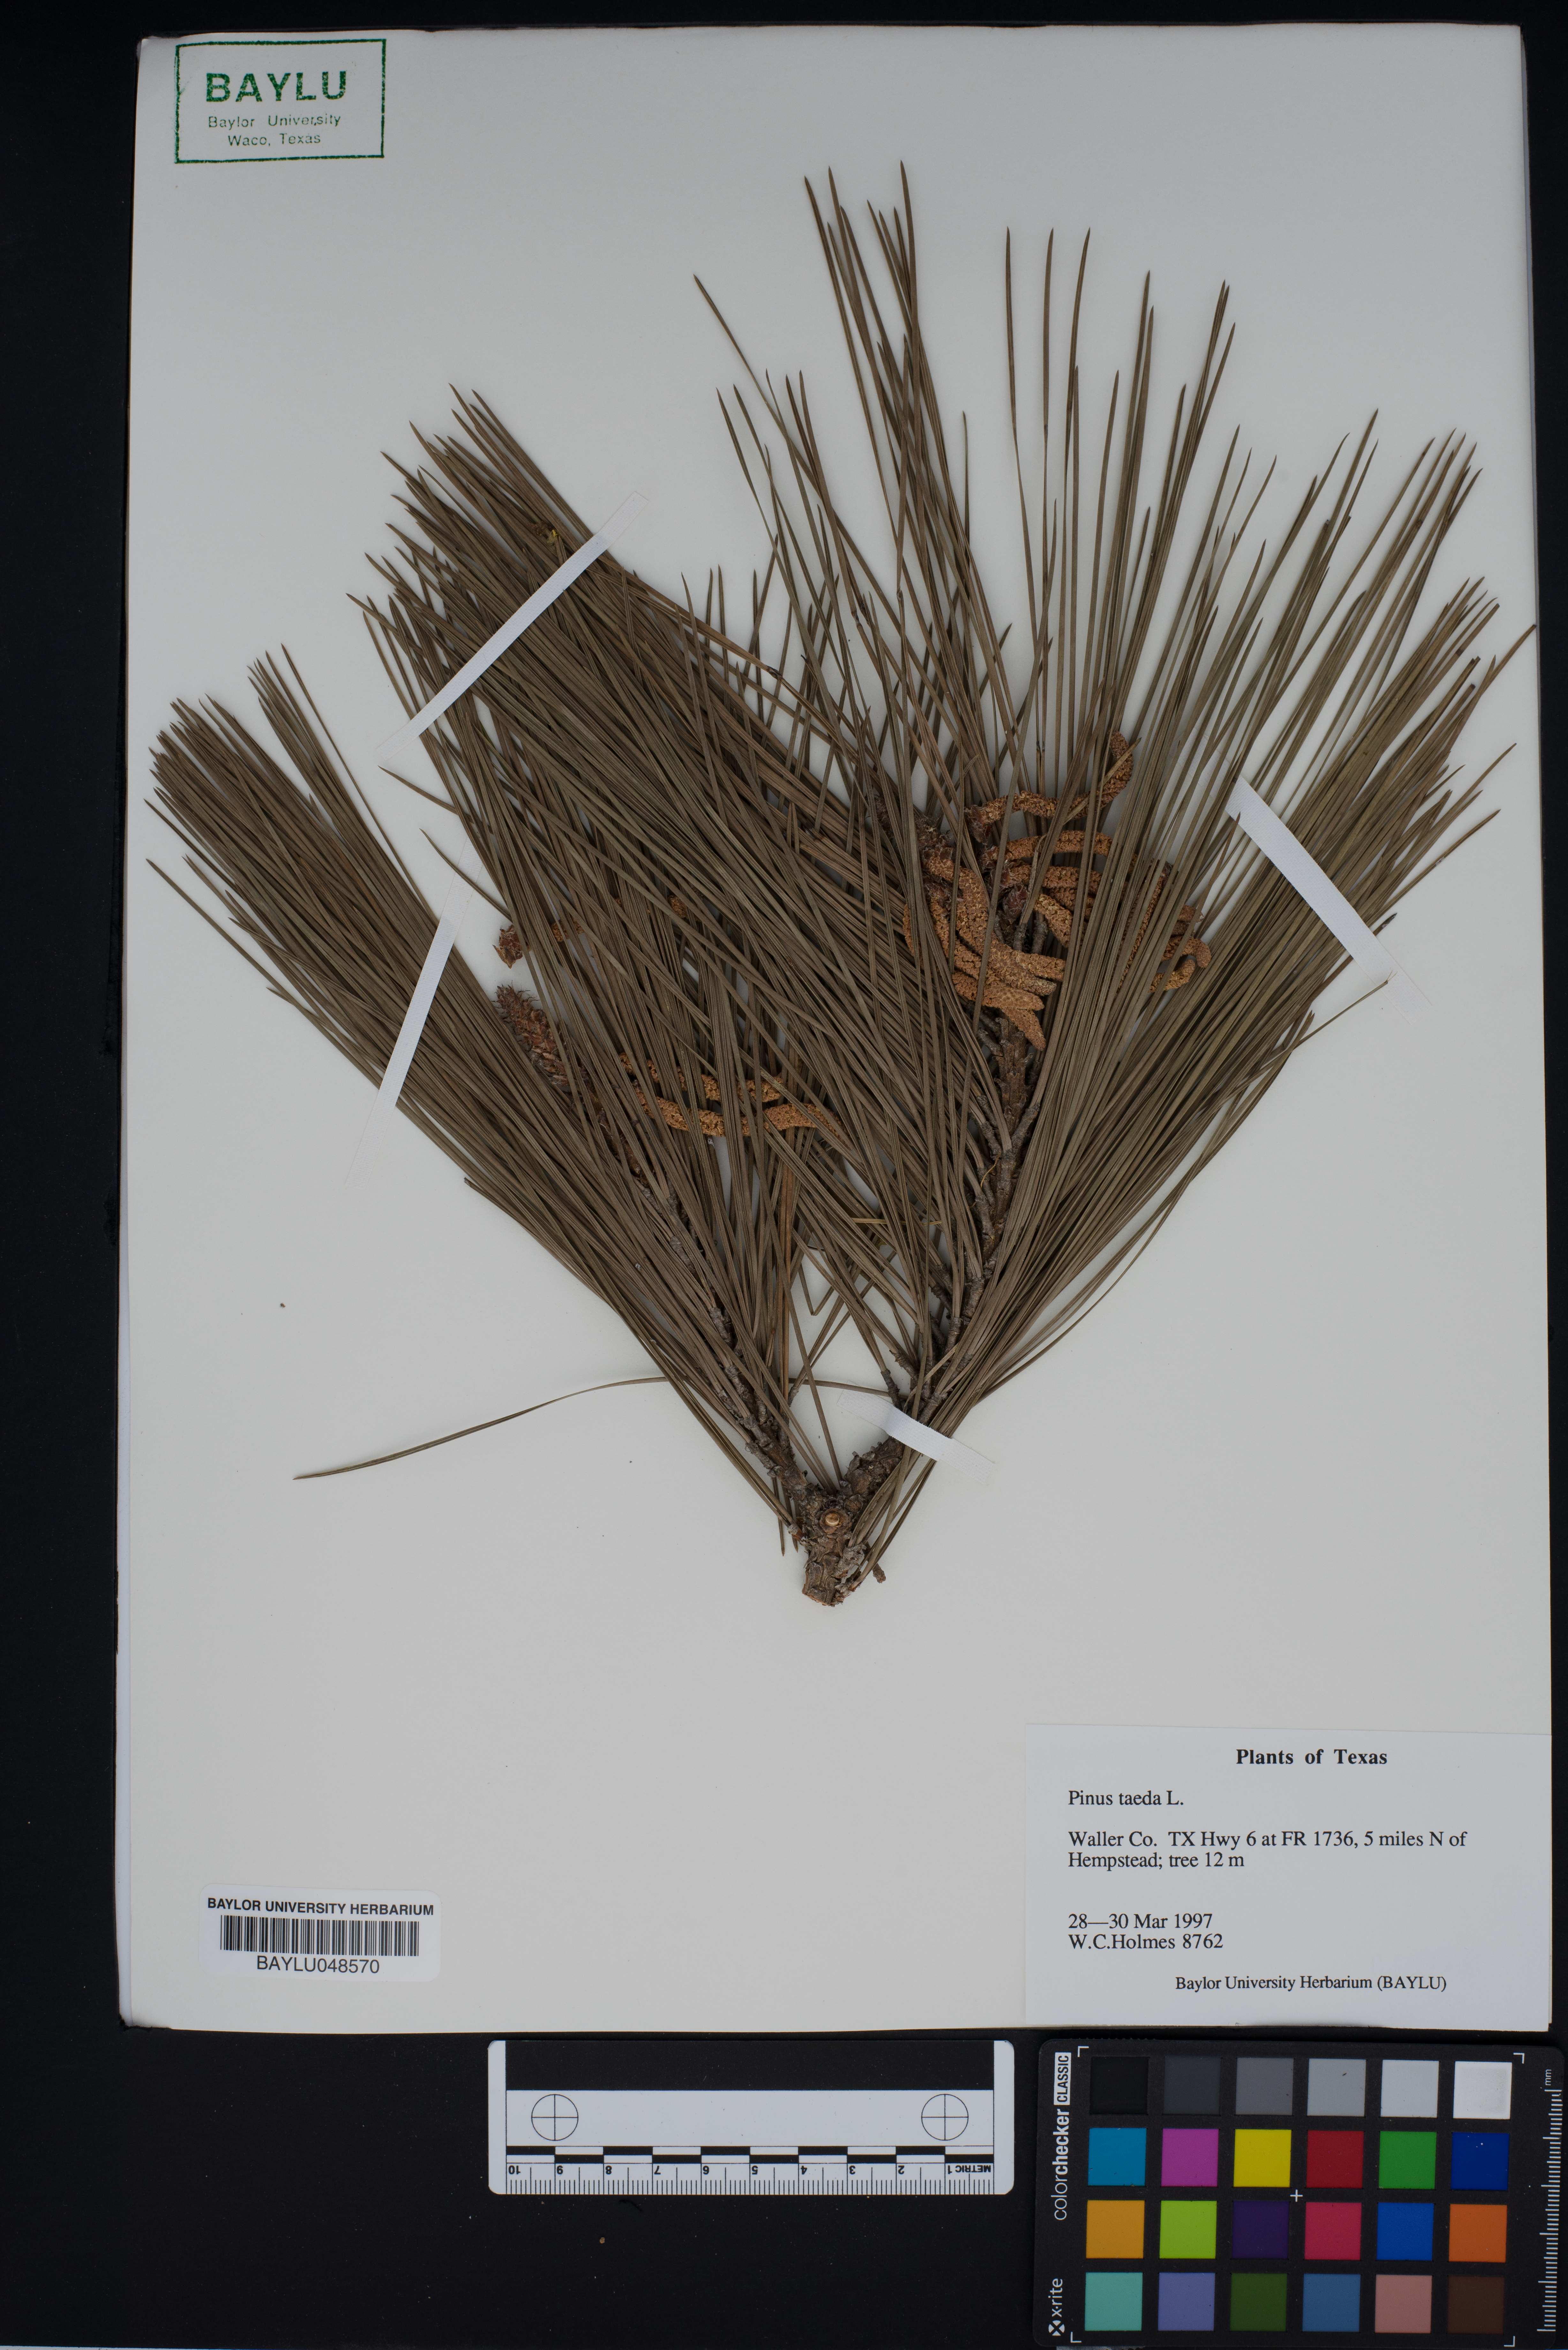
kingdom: Plantae
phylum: Tracheophyta
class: Pinopsida
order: Pinales
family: Pinaceae
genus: Pinus
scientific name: Pinus taeda
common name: Loblolly pine
